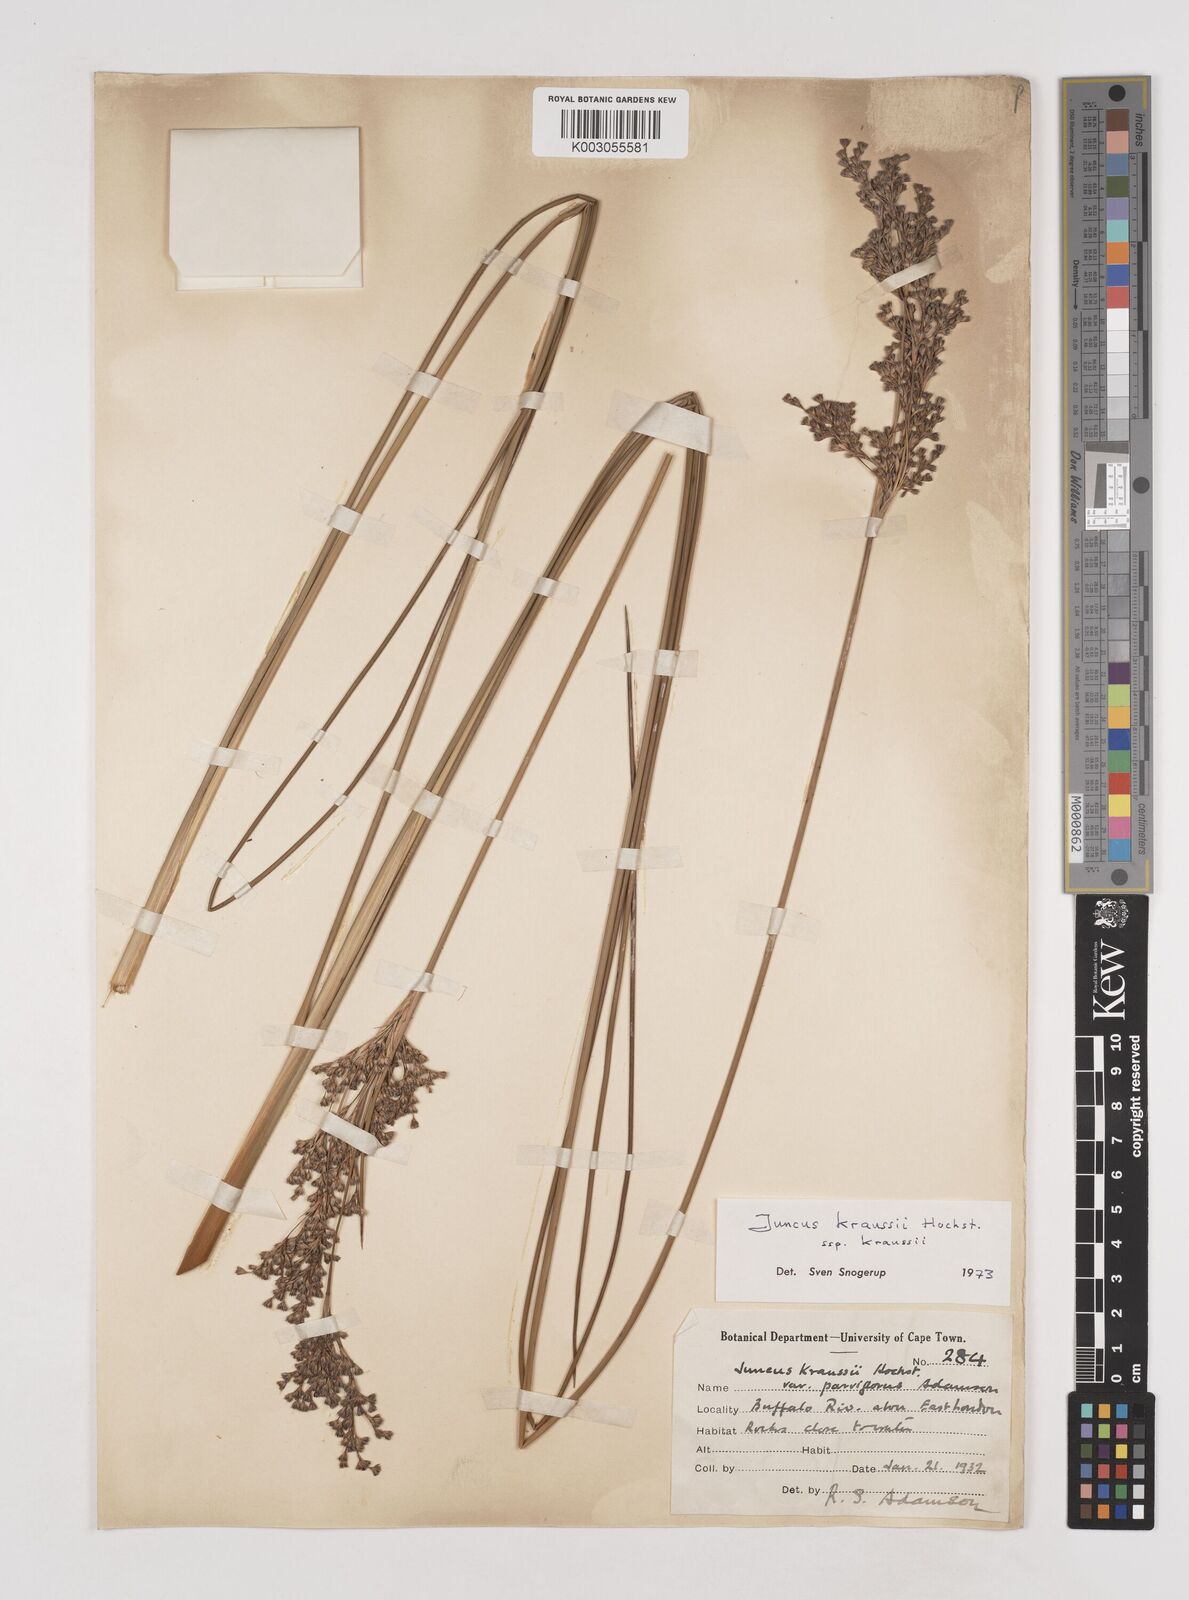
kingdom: Plantae
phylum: Tracheophyta
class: Liliopsida
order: Poales
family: Juncaceae
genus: Juncus
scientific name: Juncus kraussii
